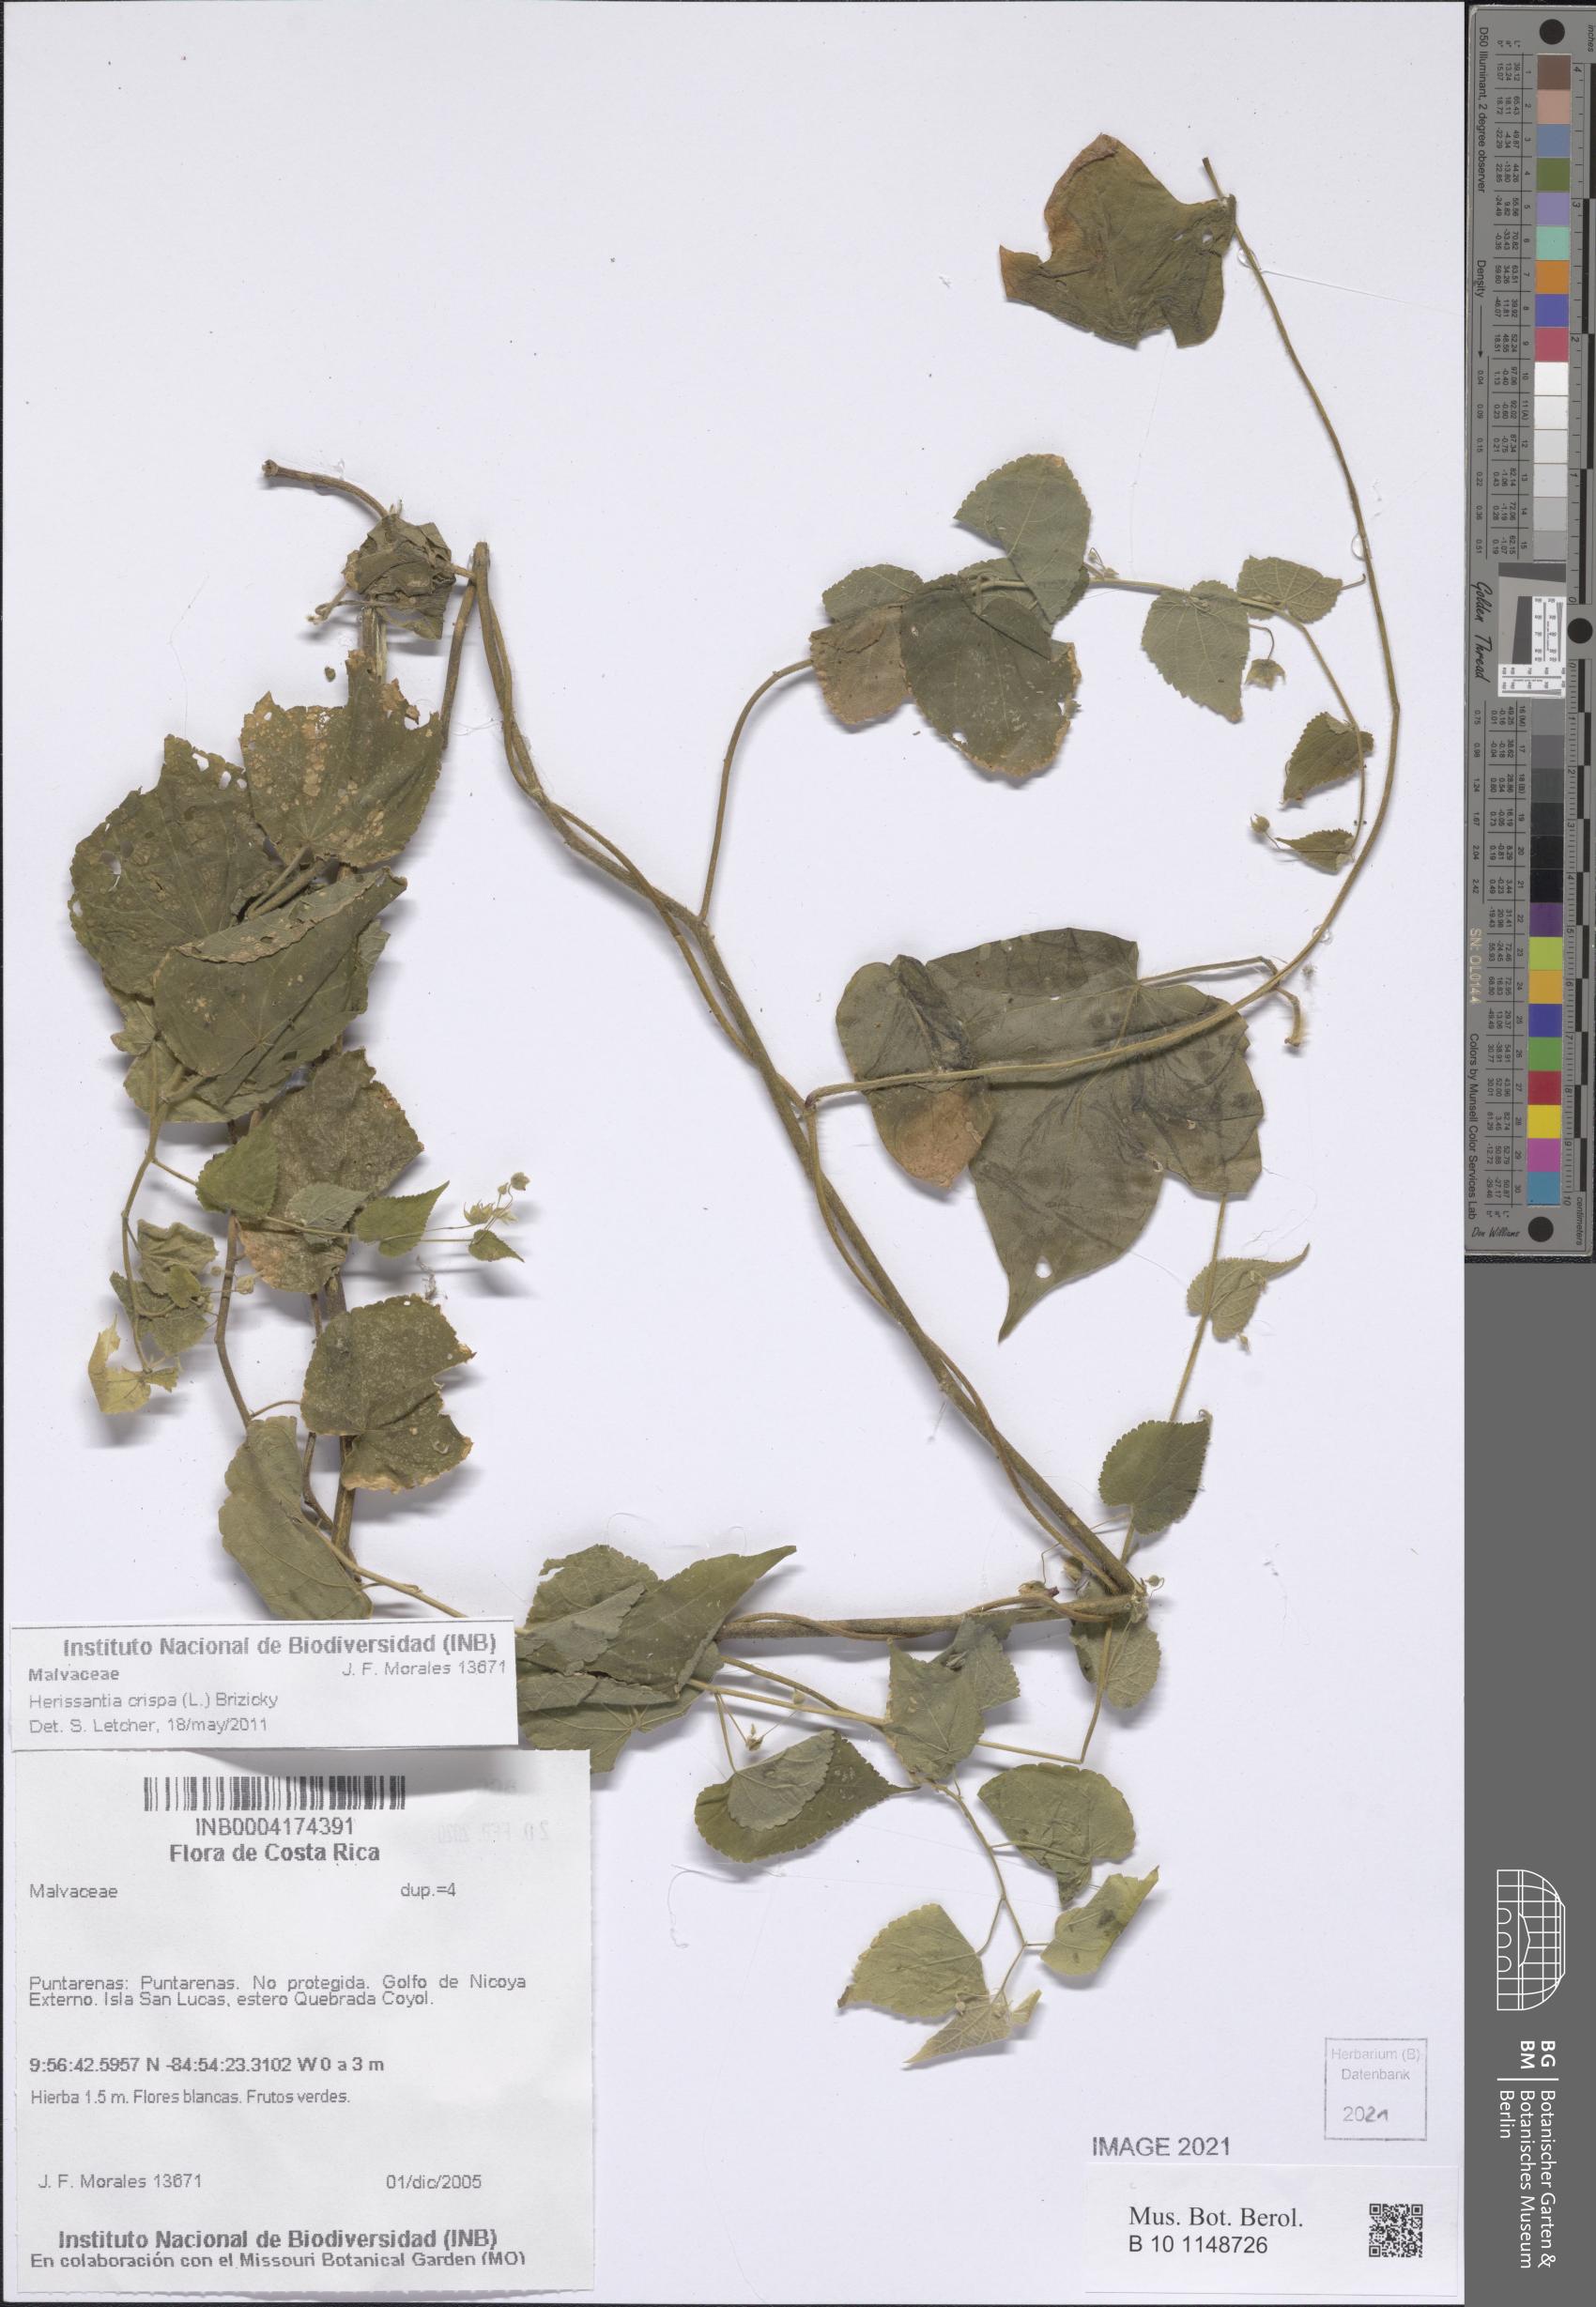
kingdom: Plantae
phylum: Tracheophyta
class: Magnoliopsida
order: Malvales
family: Malvaceae
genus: Herissantia
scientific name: Herissantia crispa
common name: Bladdermallow
